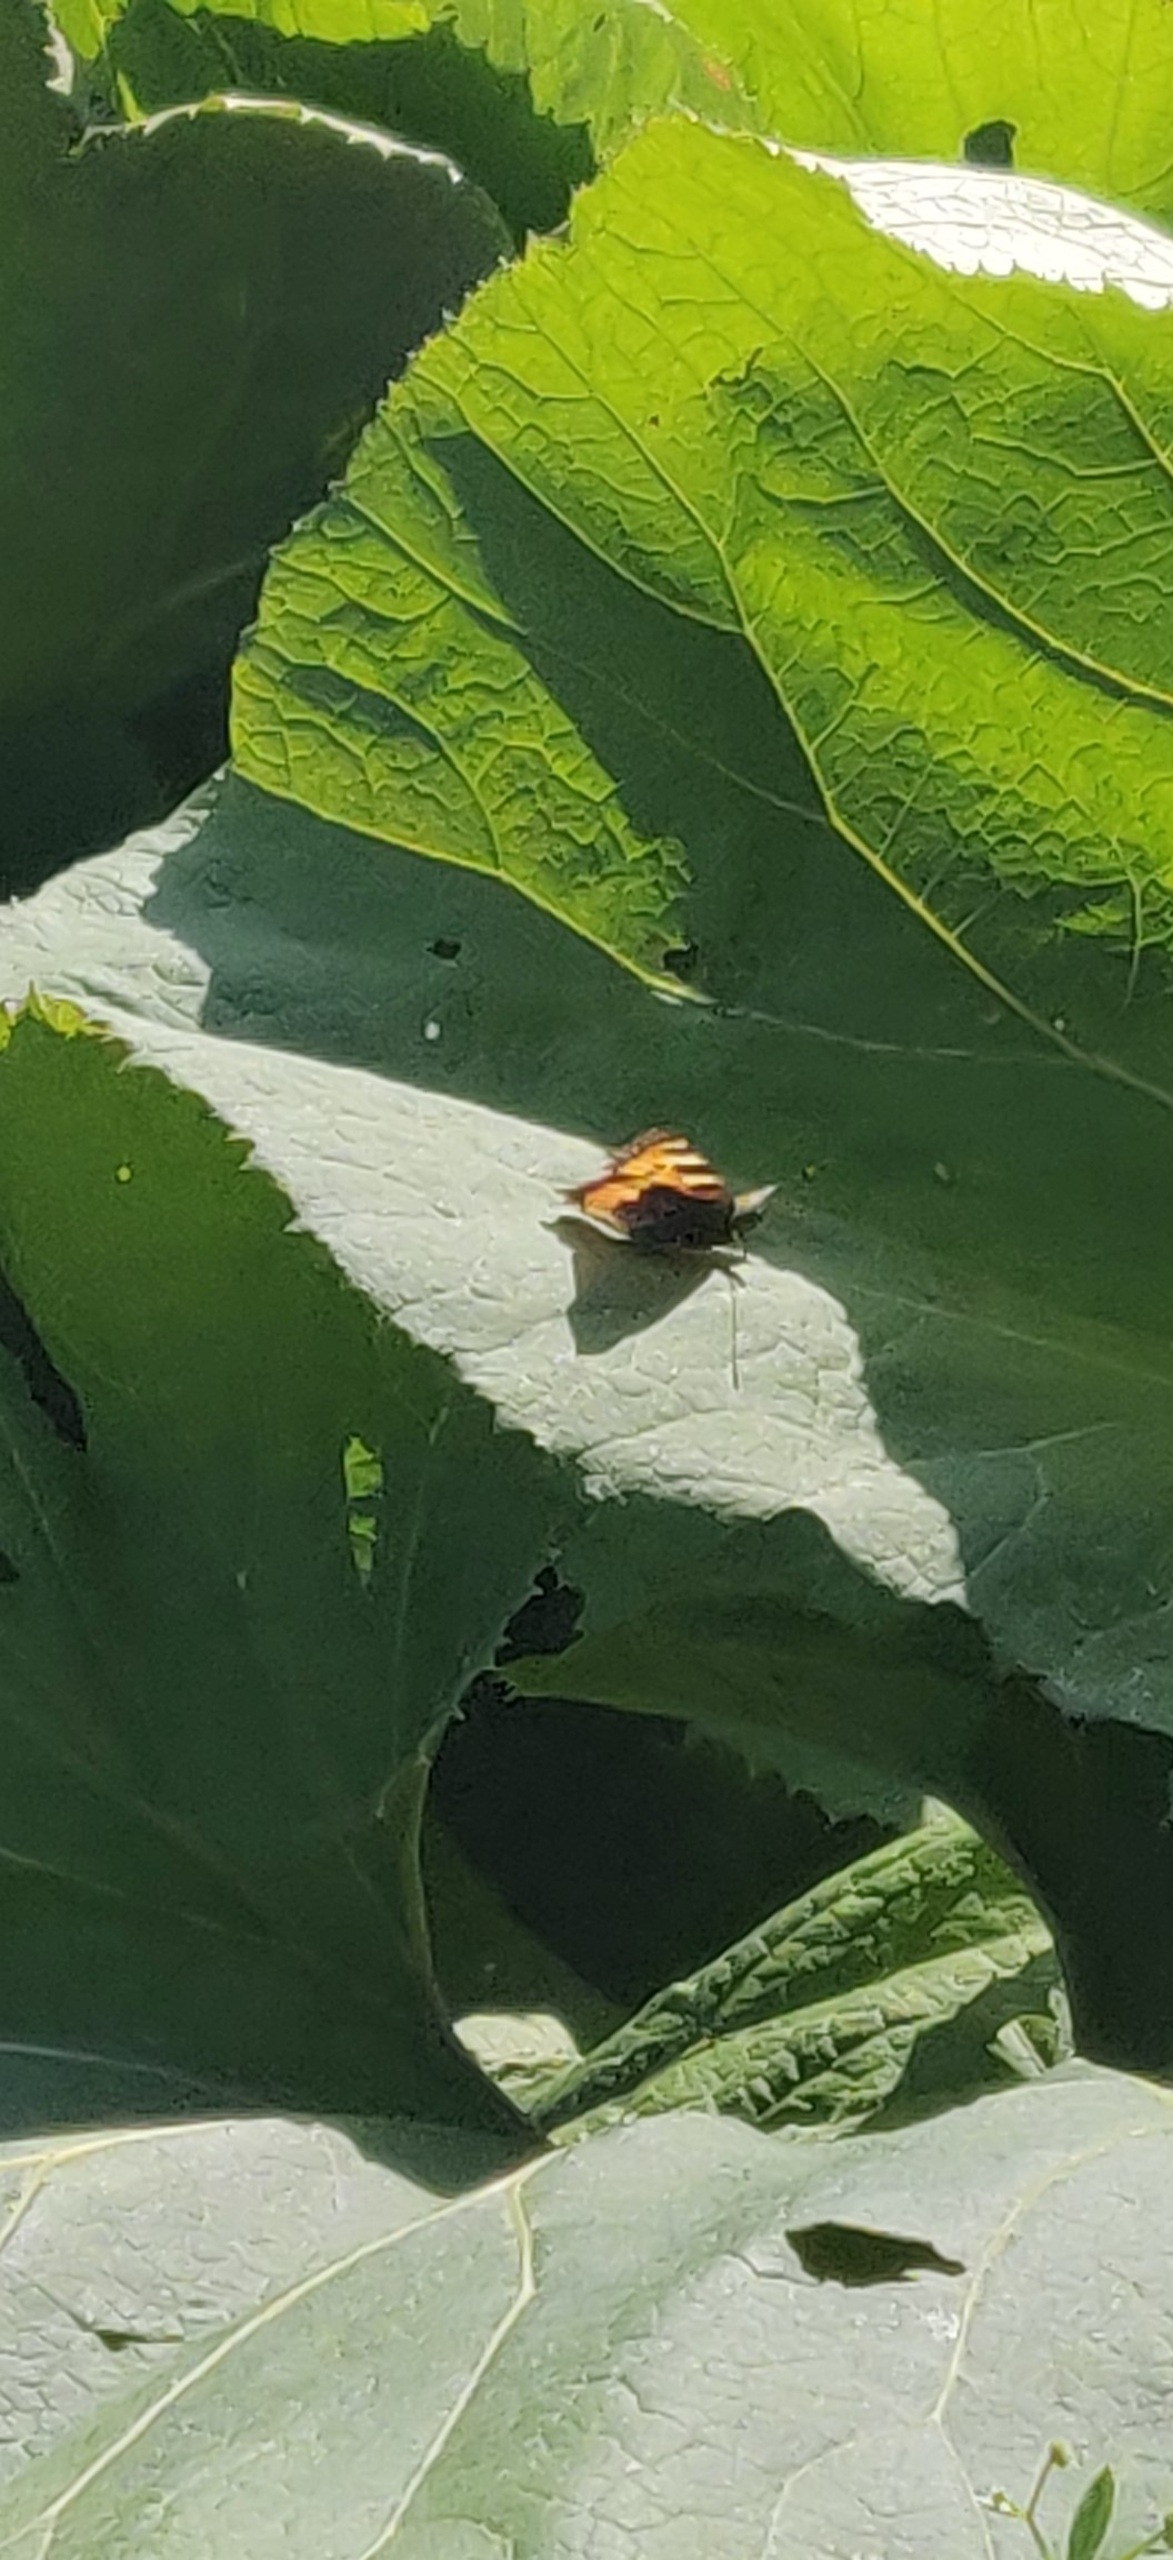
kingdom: Animalia
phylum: Arthropoda
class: Insecta
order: Lepidoptera
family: Nymphalidae
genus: Aglais
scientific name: Aglais urticae
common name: Nældens takvinge
